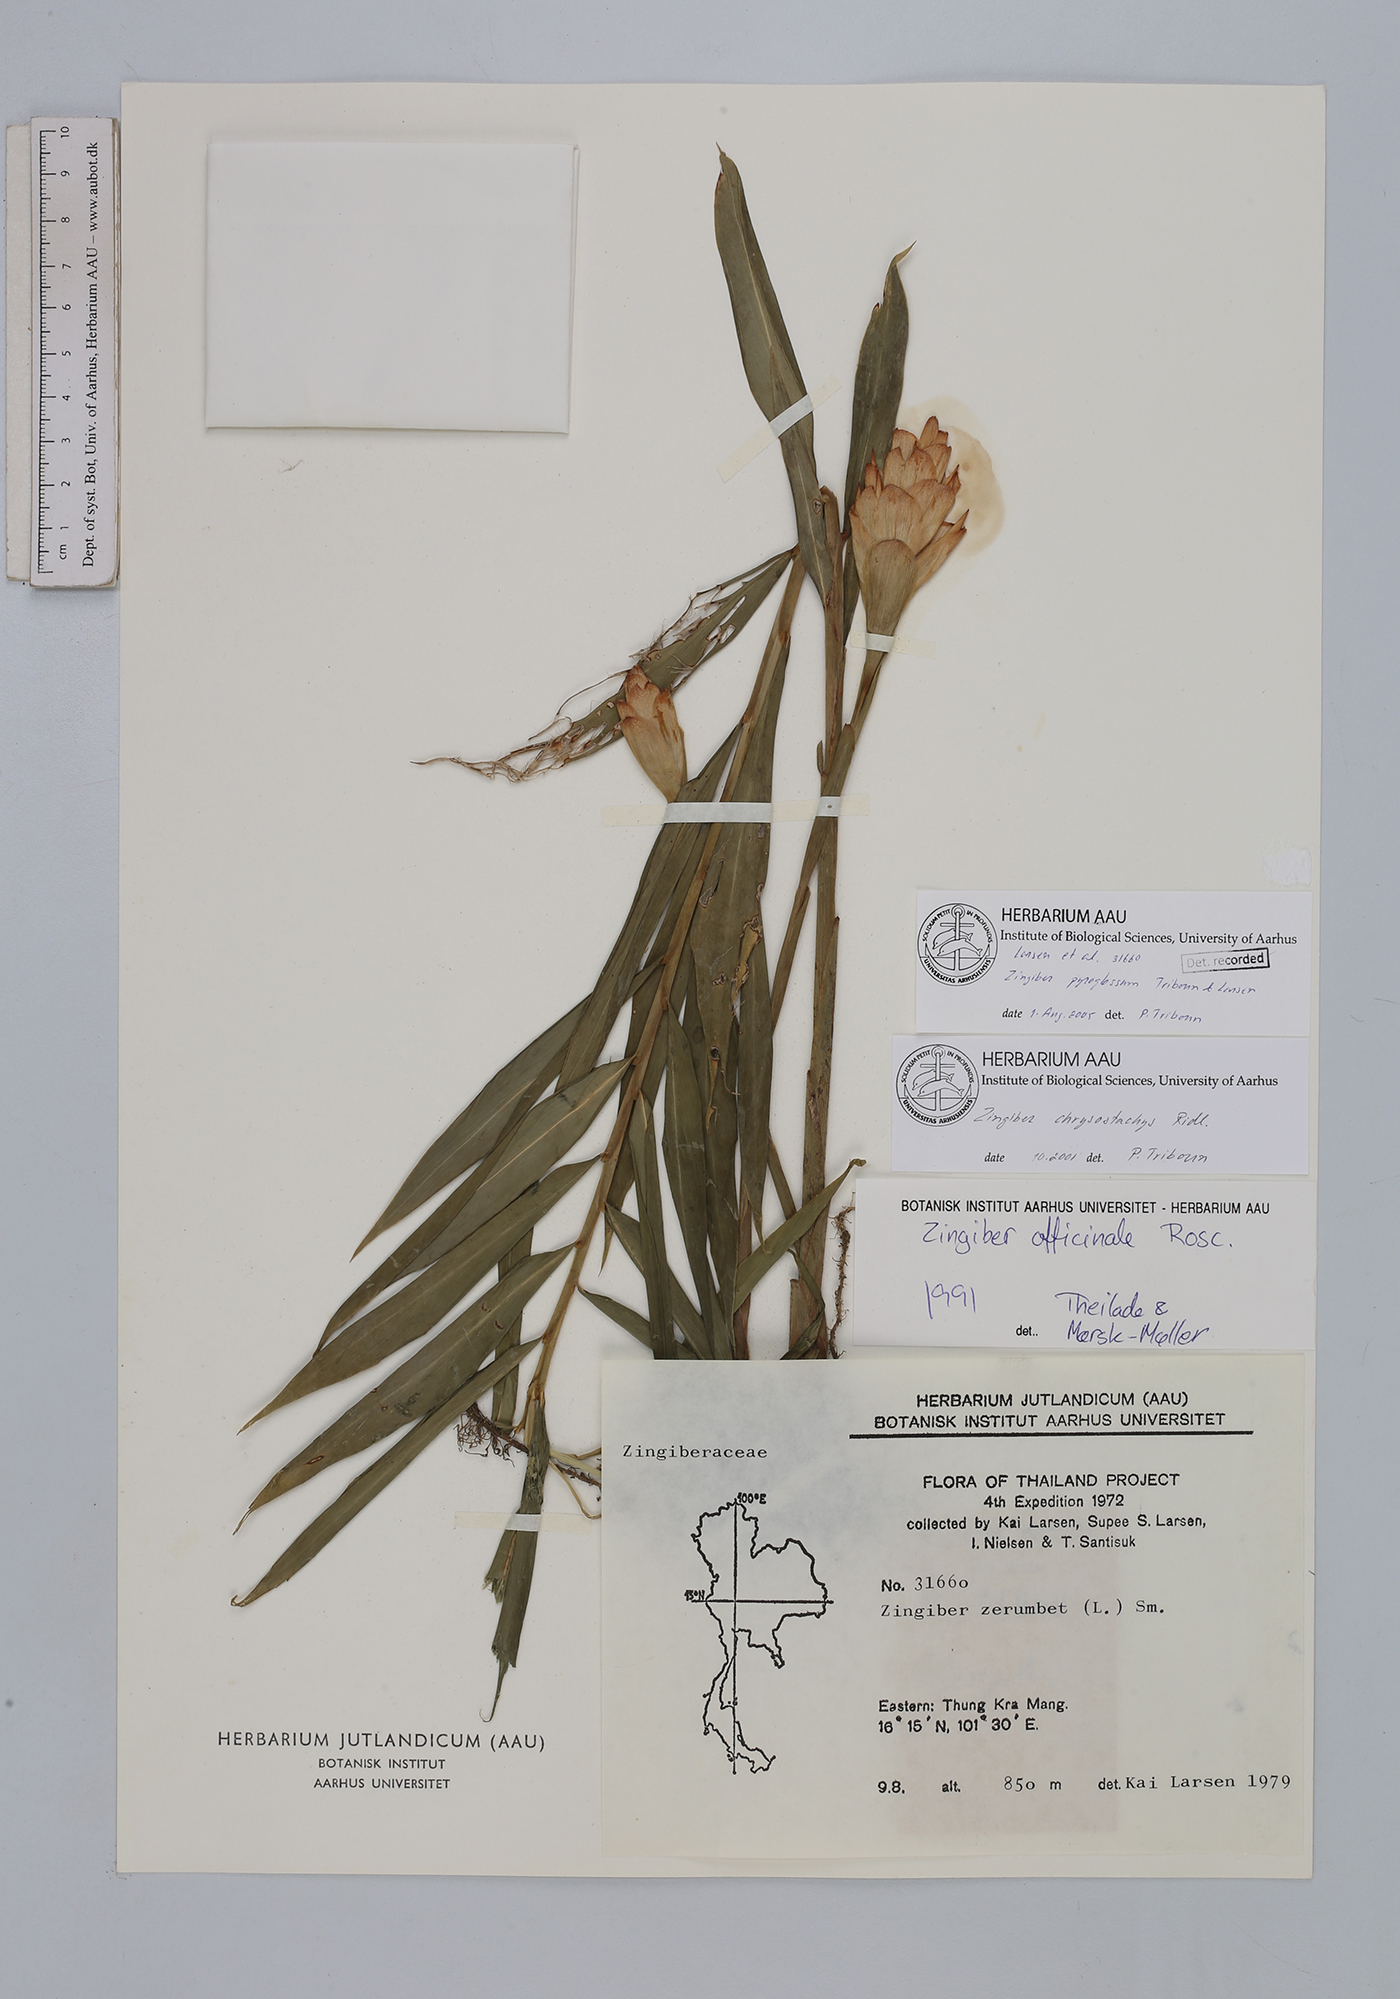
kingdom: Plantae
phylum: Tracheophyta
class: Liliopsida
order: Zingiberales
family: Zingiberaceae
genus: Zingiber
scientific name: Zingiber pyroglossum
